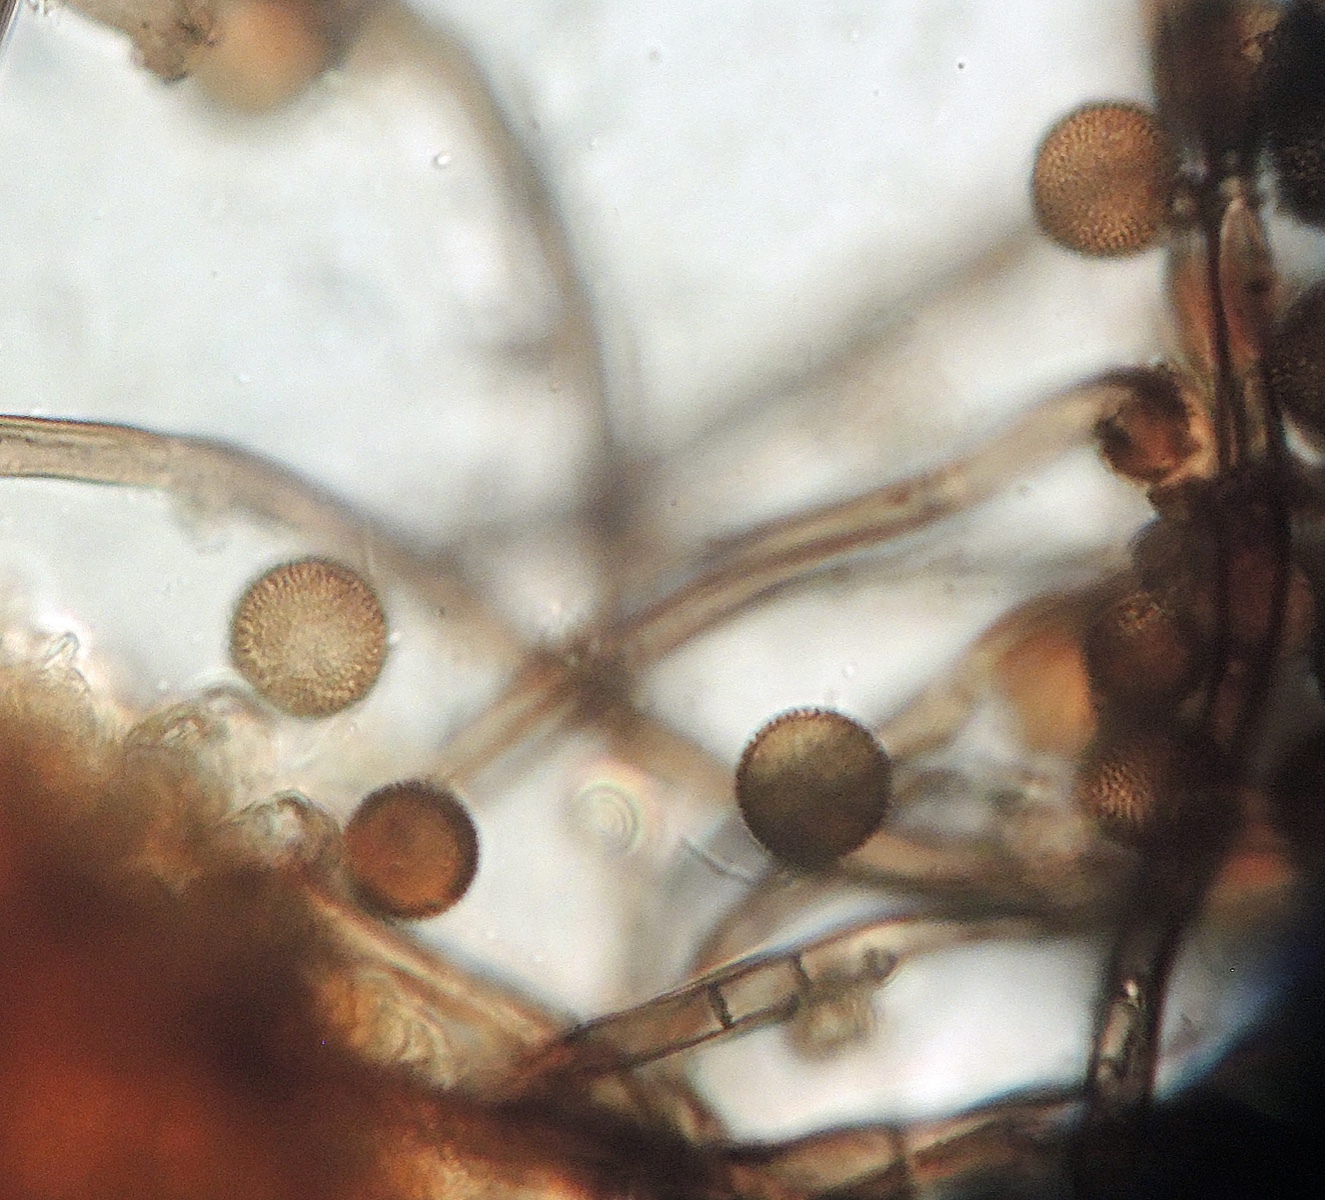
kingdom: Fungi
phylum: Ascomycota
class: Dothideomycetes
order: Pleosporales
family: Periconiaceae
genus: Periconia
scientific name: Periconia hispidula
